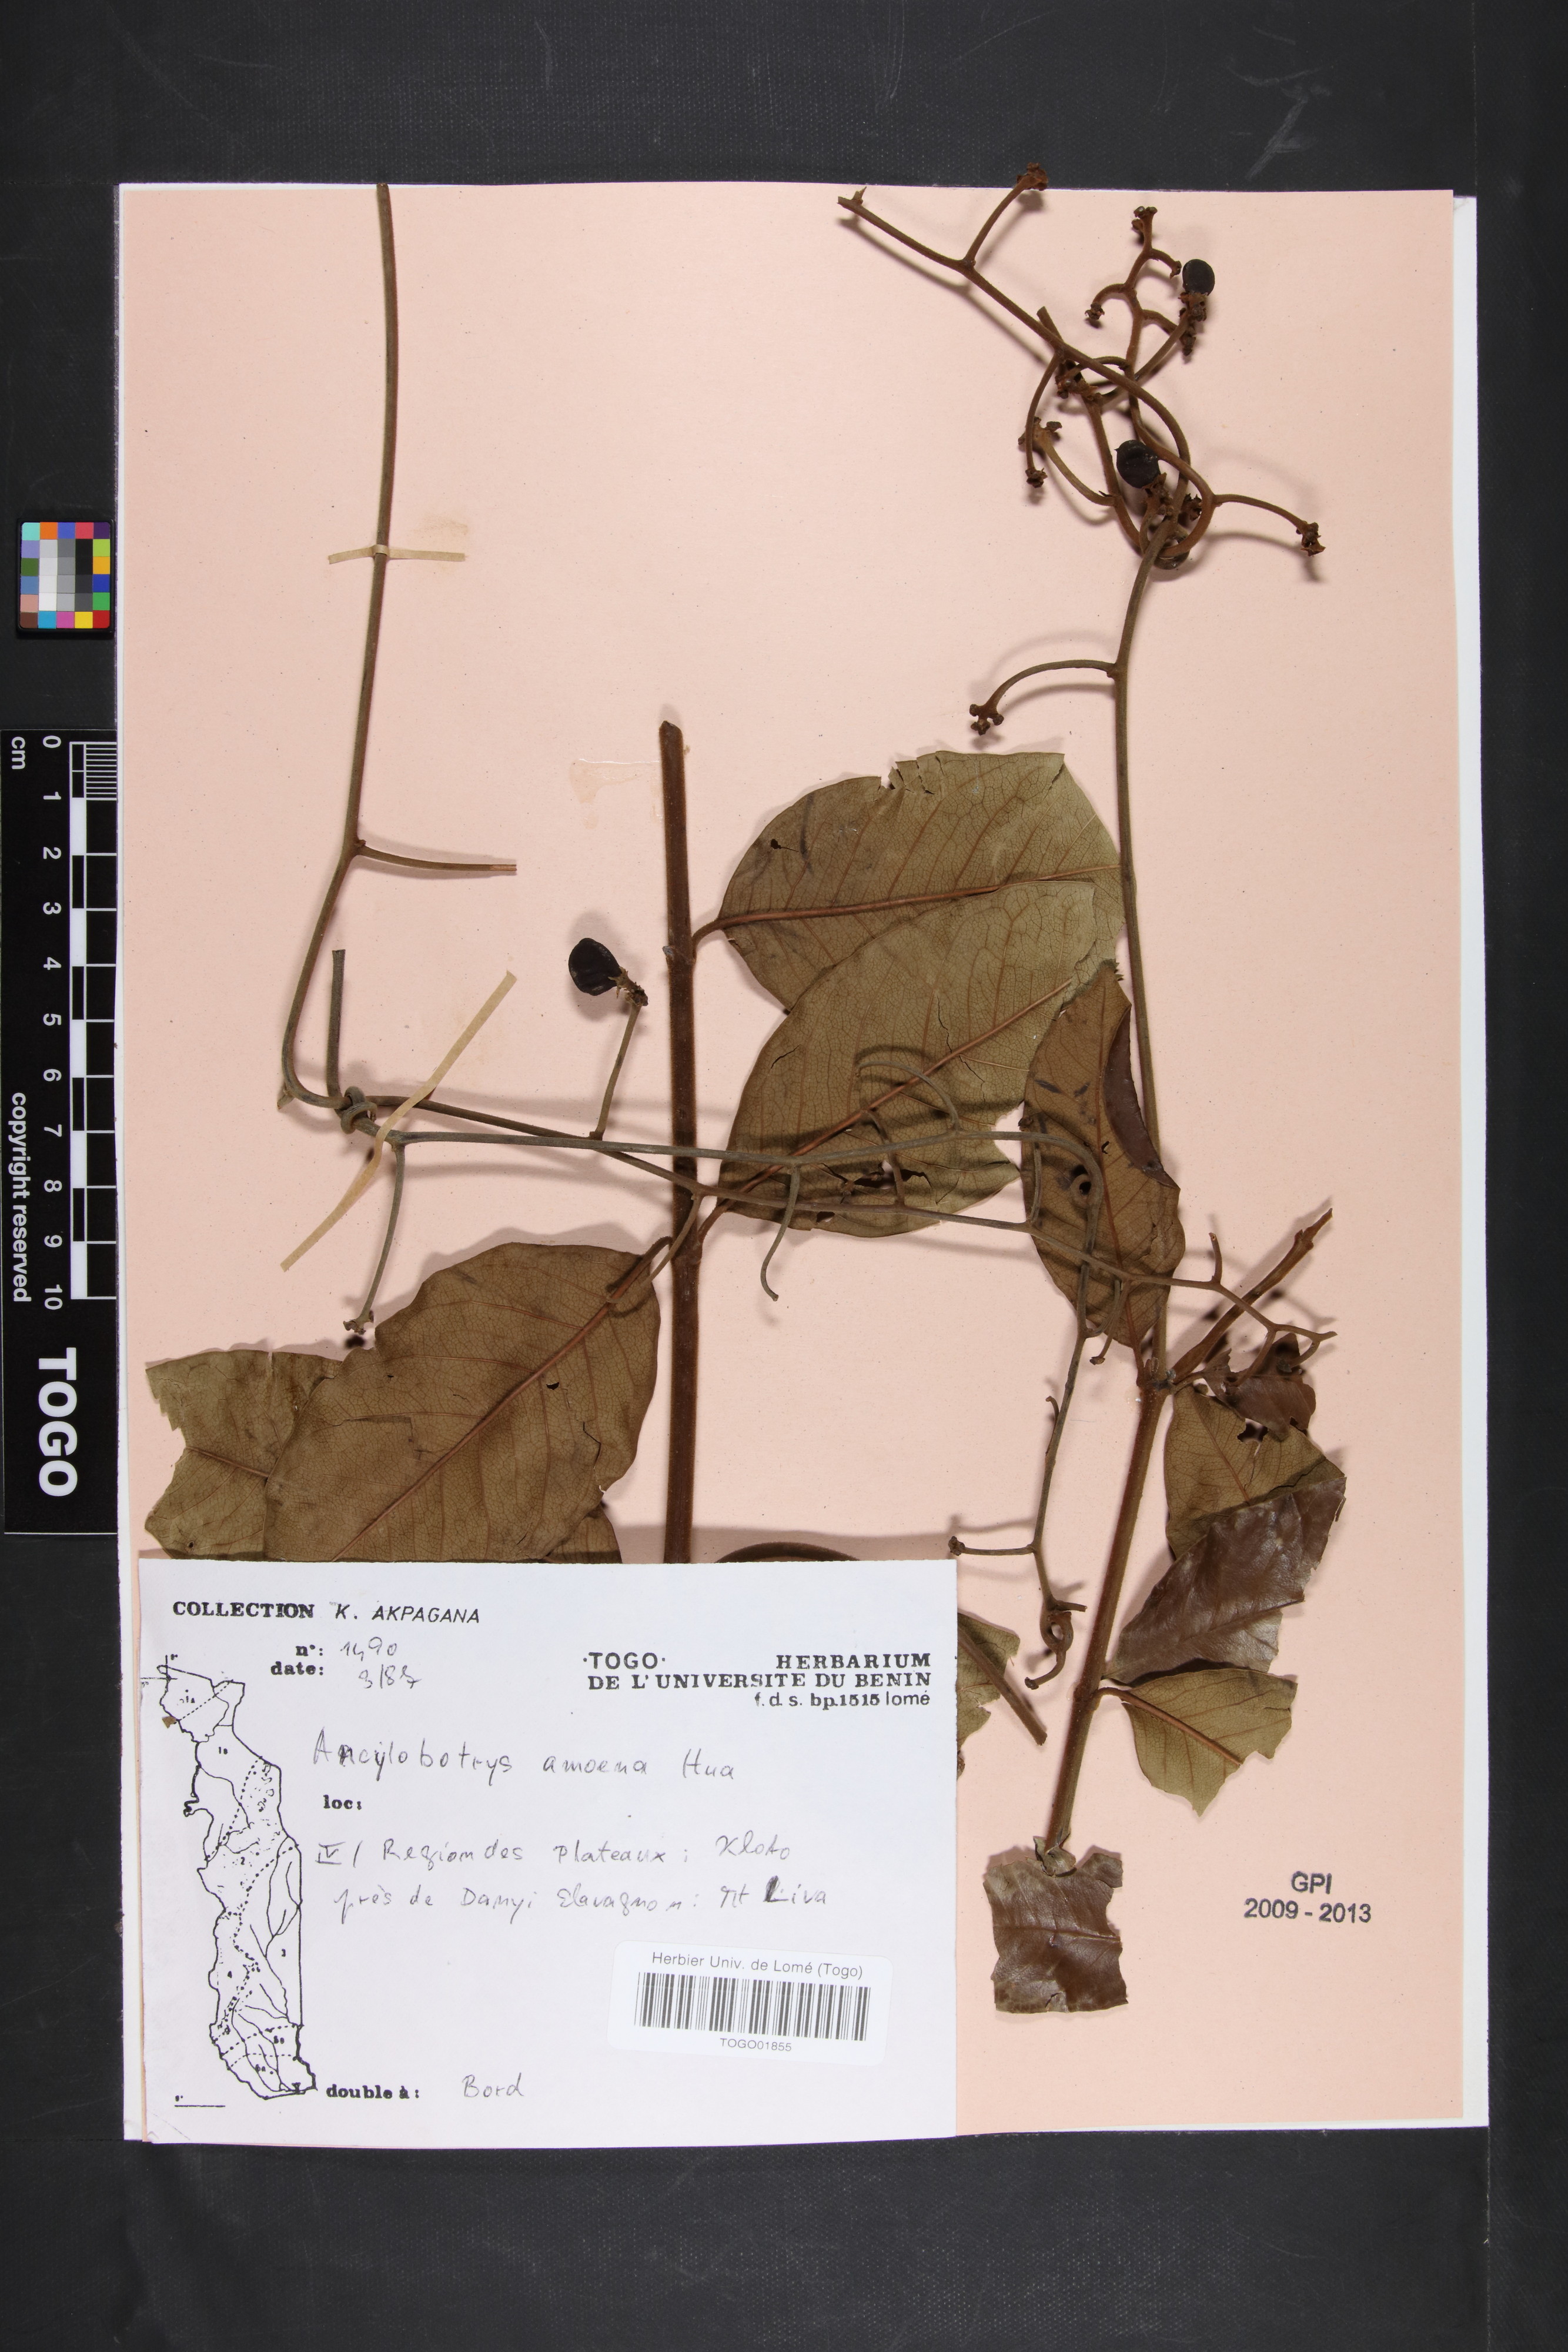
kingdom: Plantae
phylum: Tracheophyta
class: Magnoliopsida
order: Gentianales
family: Apocynaceae
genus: Ancylobothrys
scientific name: Ancylobothrys amoena
